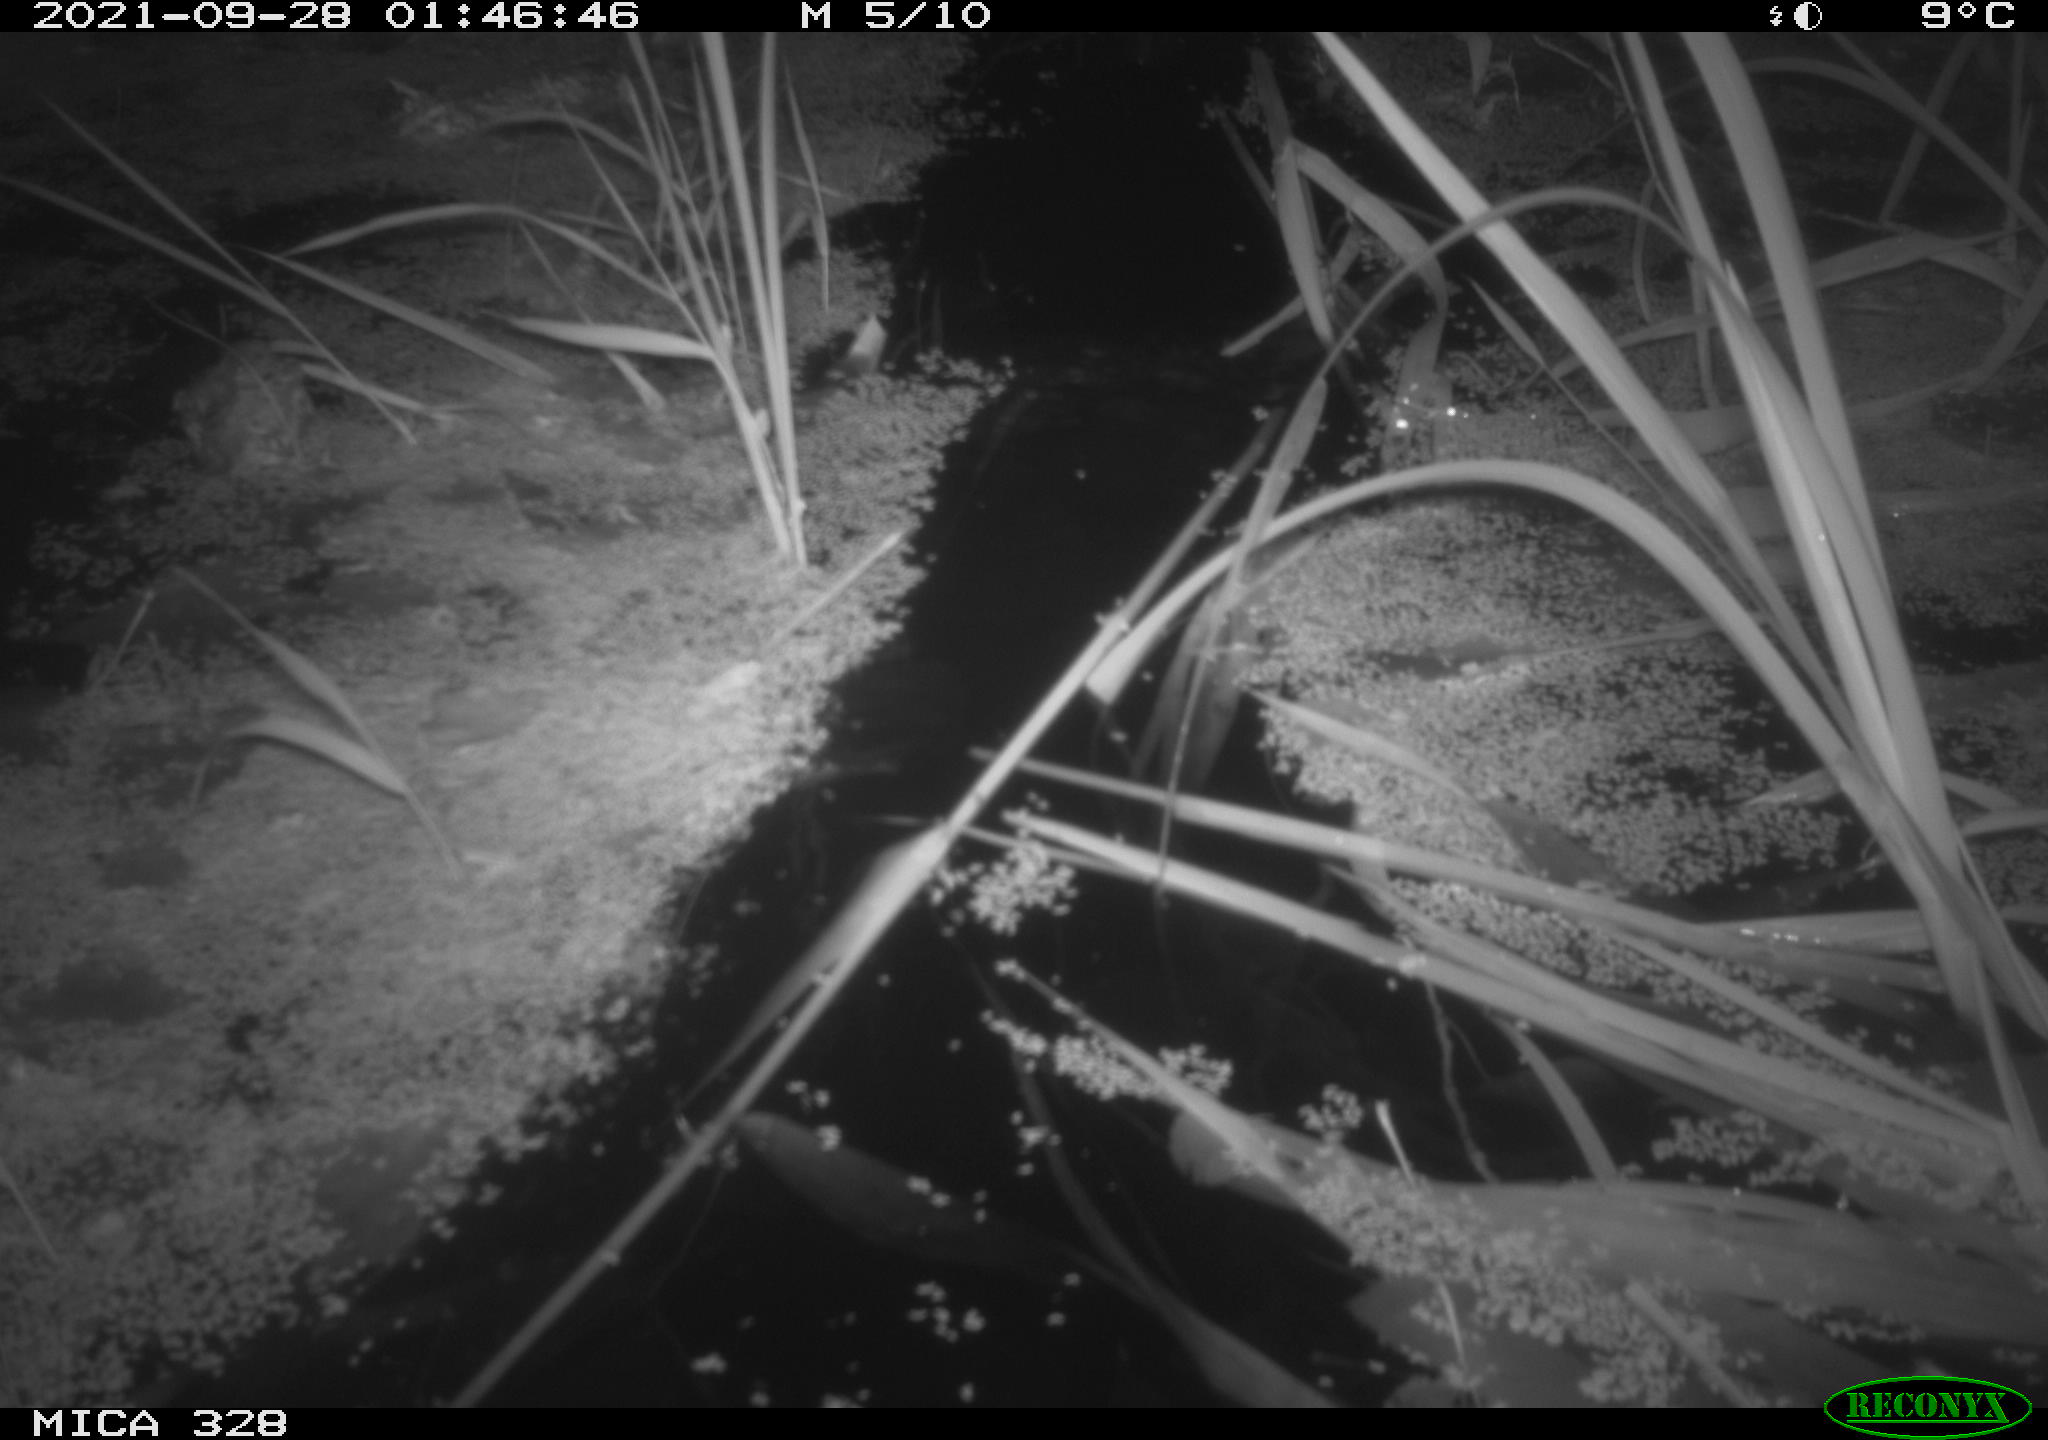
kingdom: Animalia
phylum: Chordata
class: Mammalia
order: Rodentia
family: Cricetidae
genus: Ondatra
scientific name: Ondatra zibethicus
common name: Muskrat
